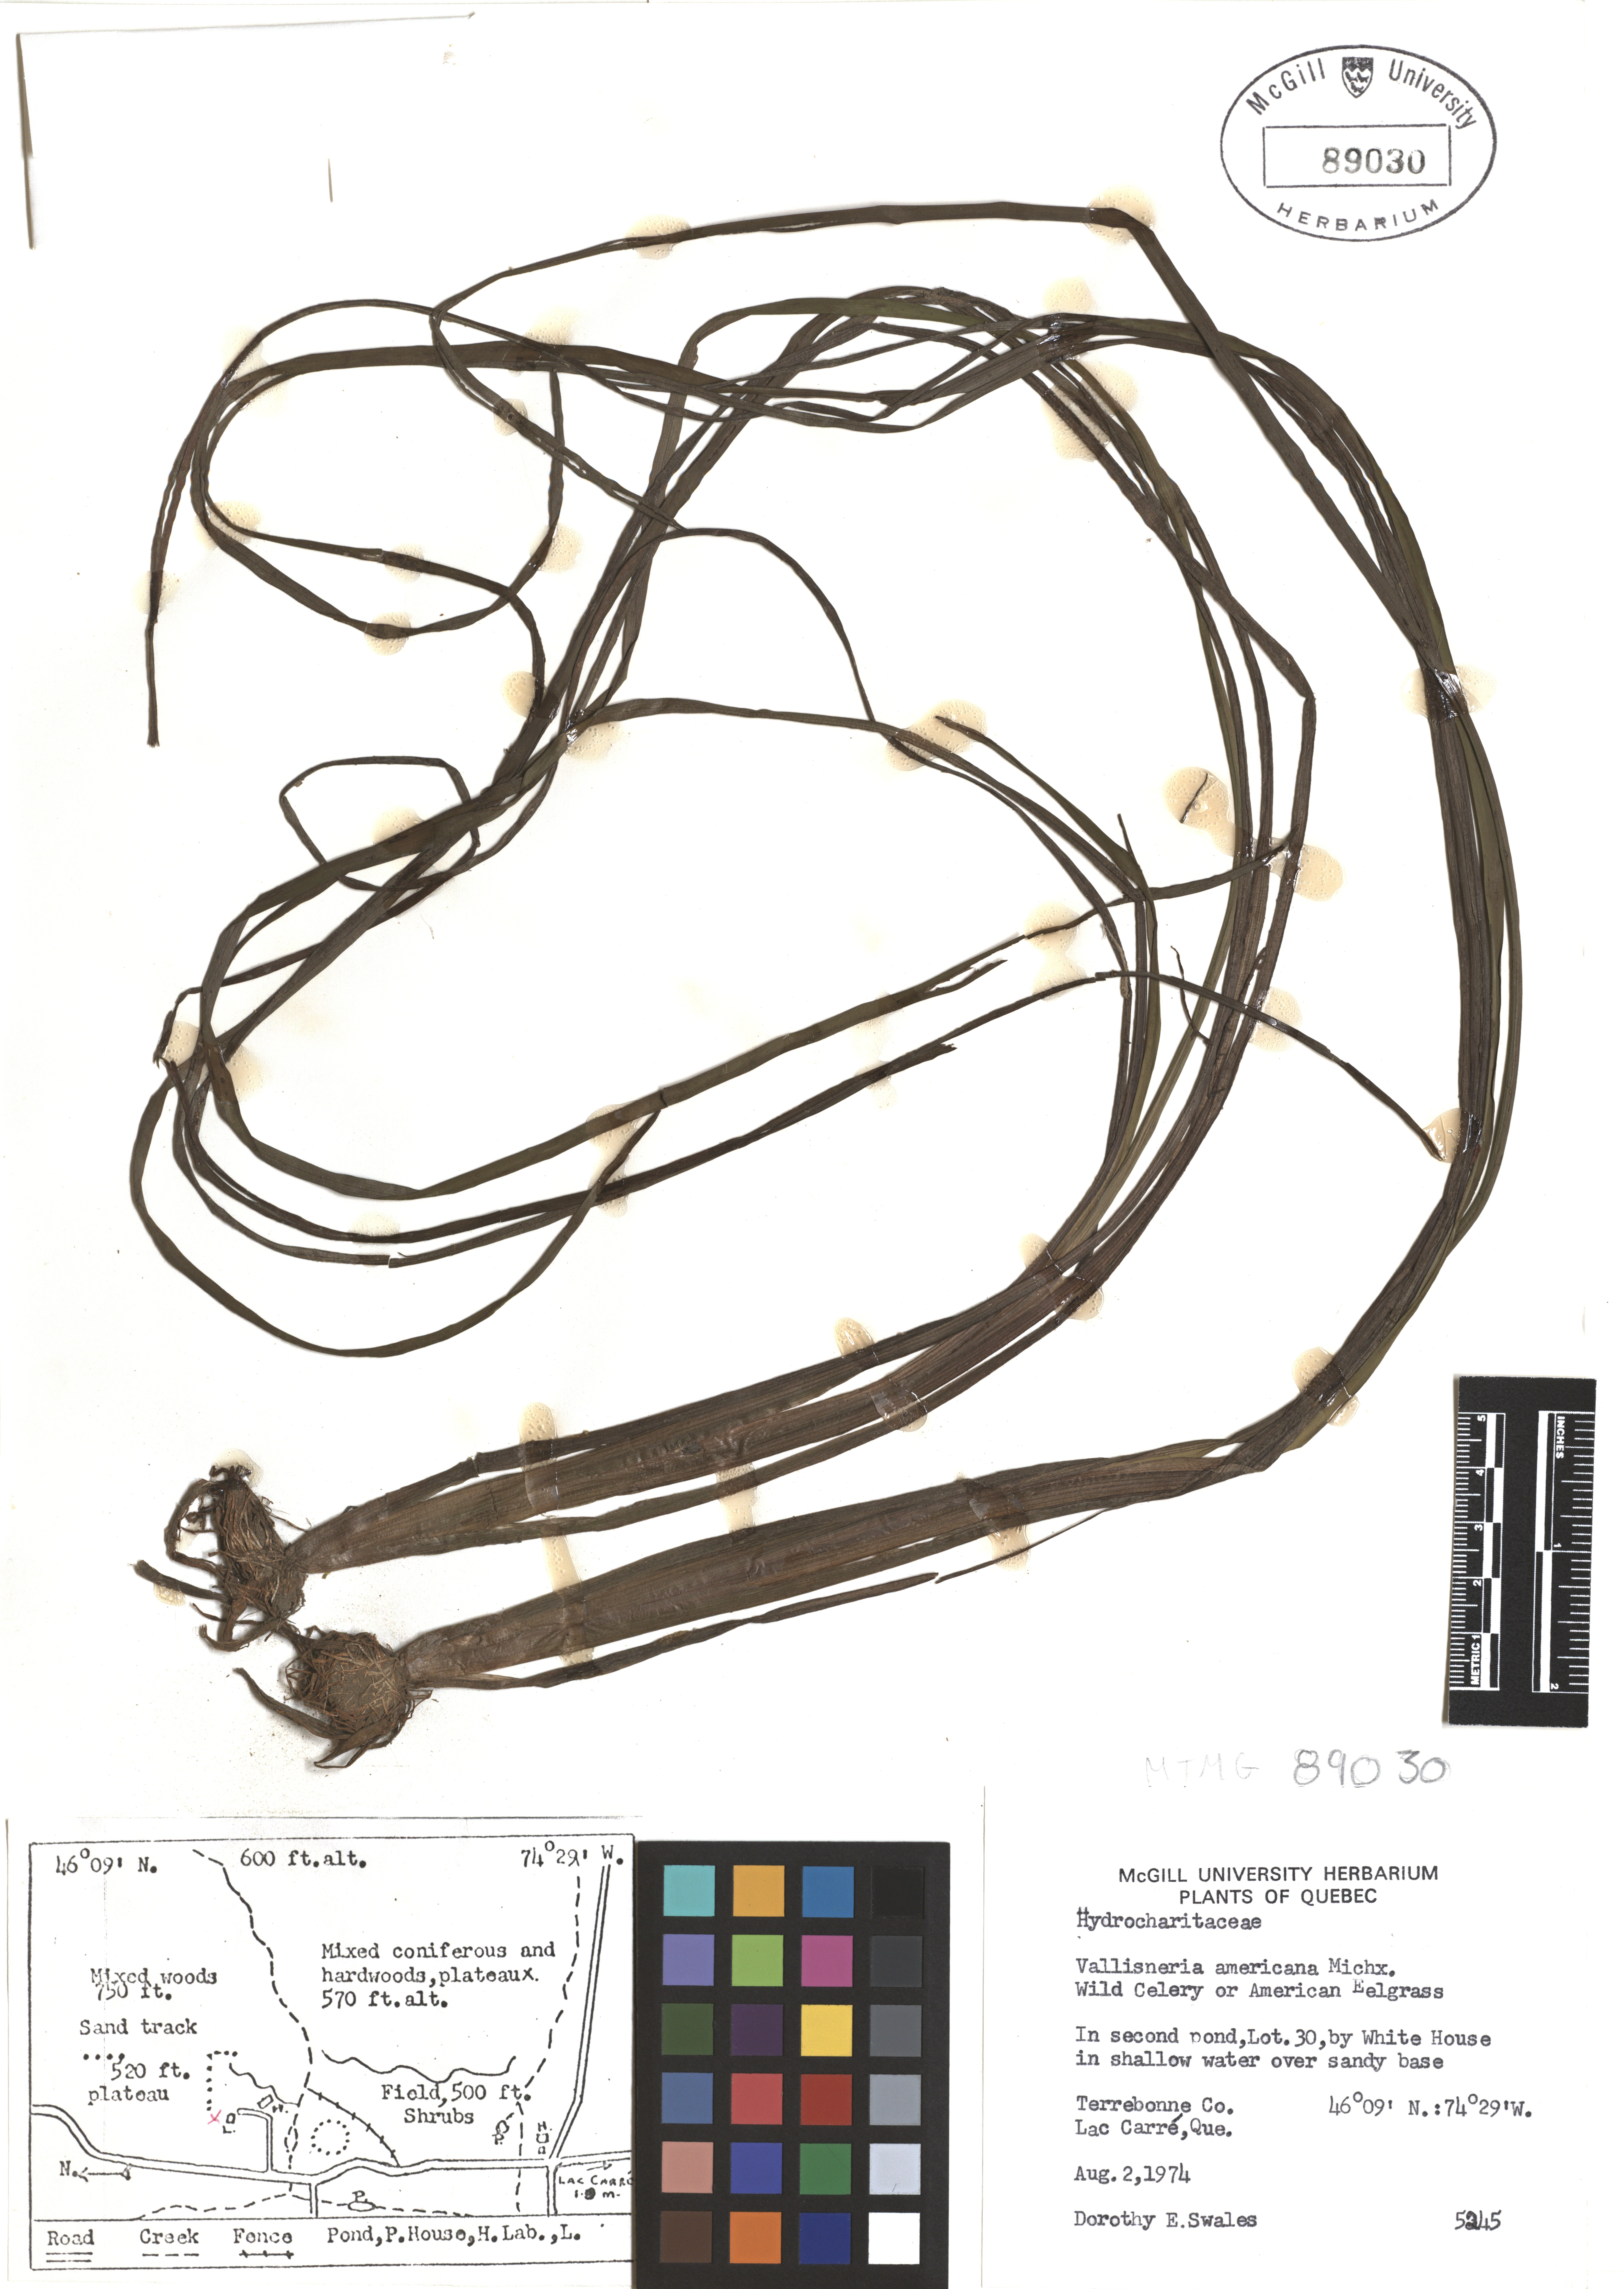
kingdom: Plantae
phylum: Tracheophyta
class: Liliopsida
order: Alismatales
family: Hydrocharitaceae
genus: Vallisneria
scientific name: Vallisneria americana
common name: American eelgrass
